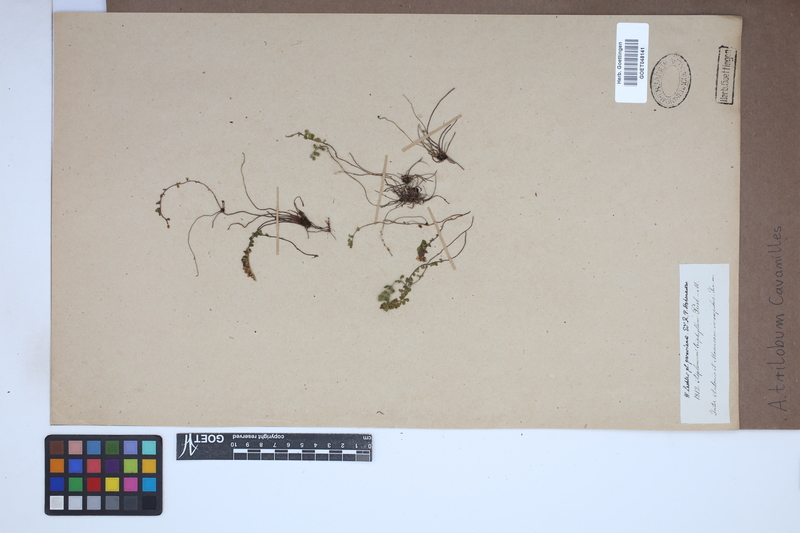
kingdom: Plantae
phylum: Tracheophyta
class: Polypodiopsida
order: Polypodiales
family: Aspleniaceae
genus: Asplenium
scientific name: Asplenium trilobum
